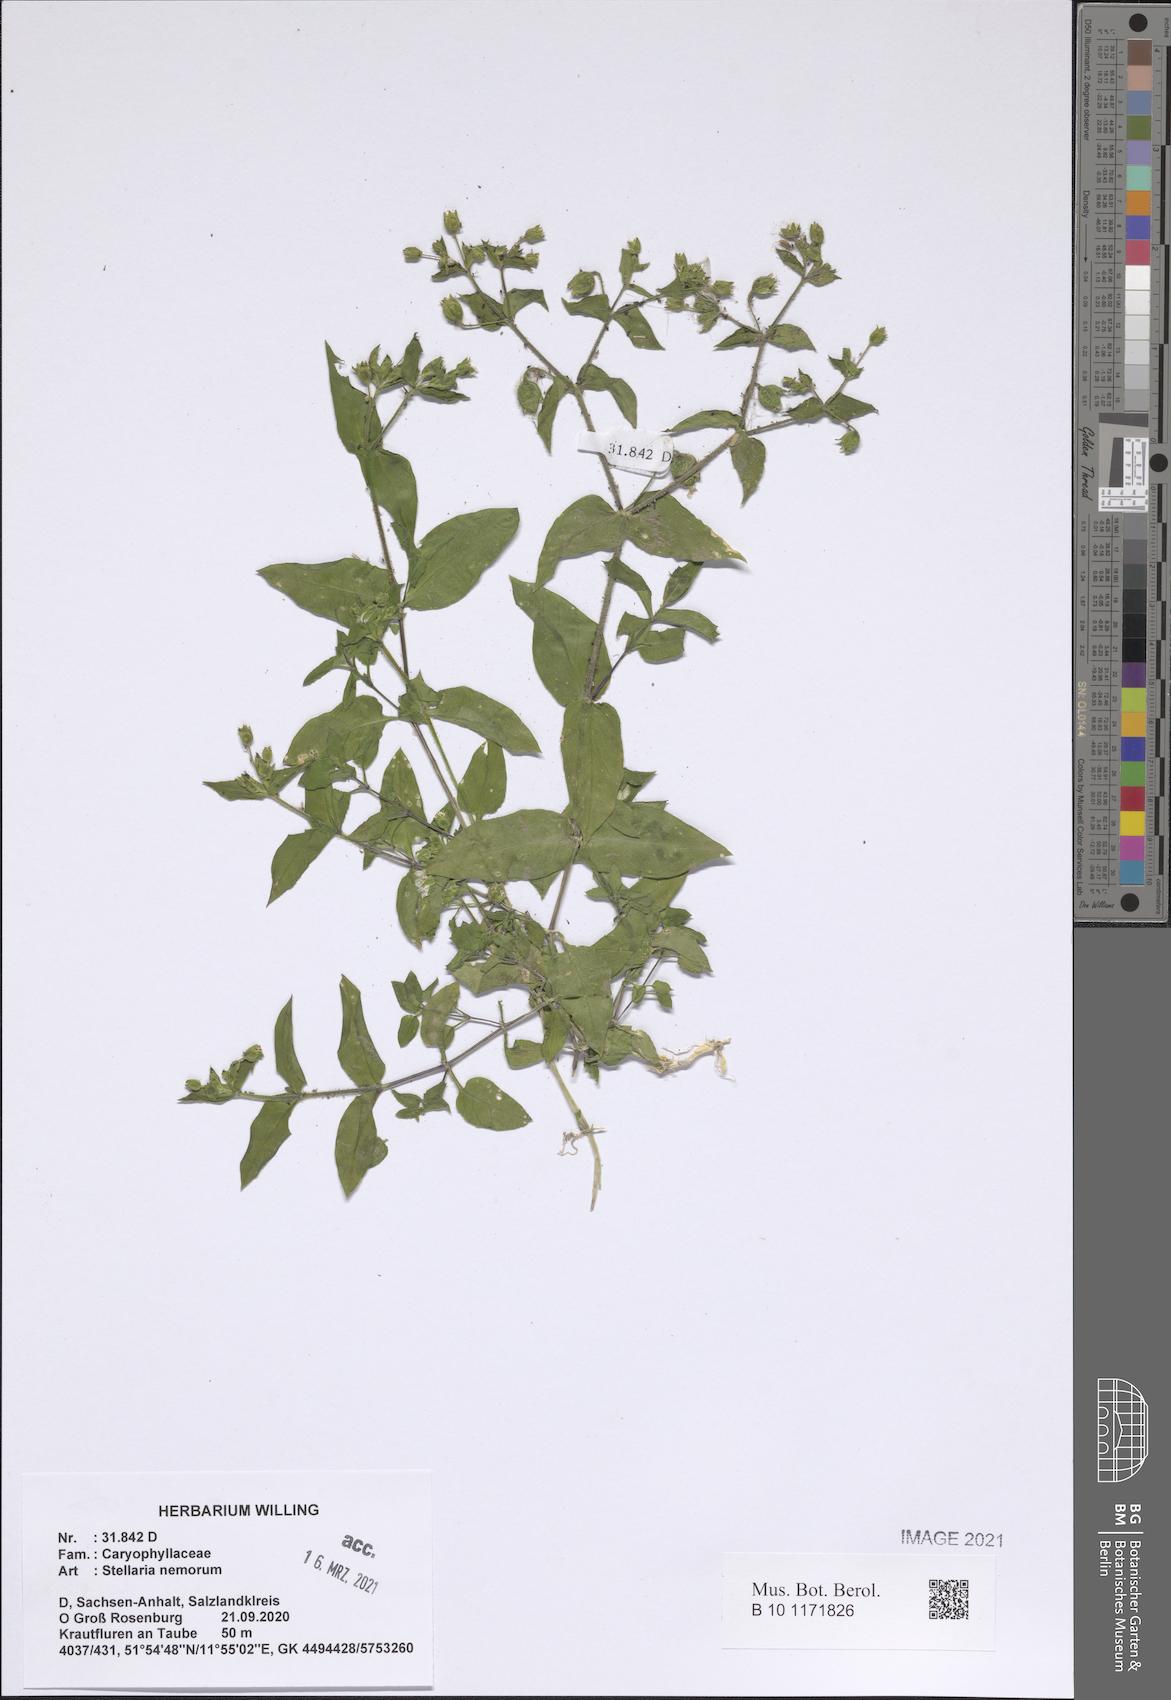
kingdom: Plantae
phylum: Tracheophyta
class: Magnoliopsida
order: Caryophyllales
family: Caryophyllaceae
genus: Stellaria
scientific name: Stellaria nemorum
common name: Wood stitchwort
